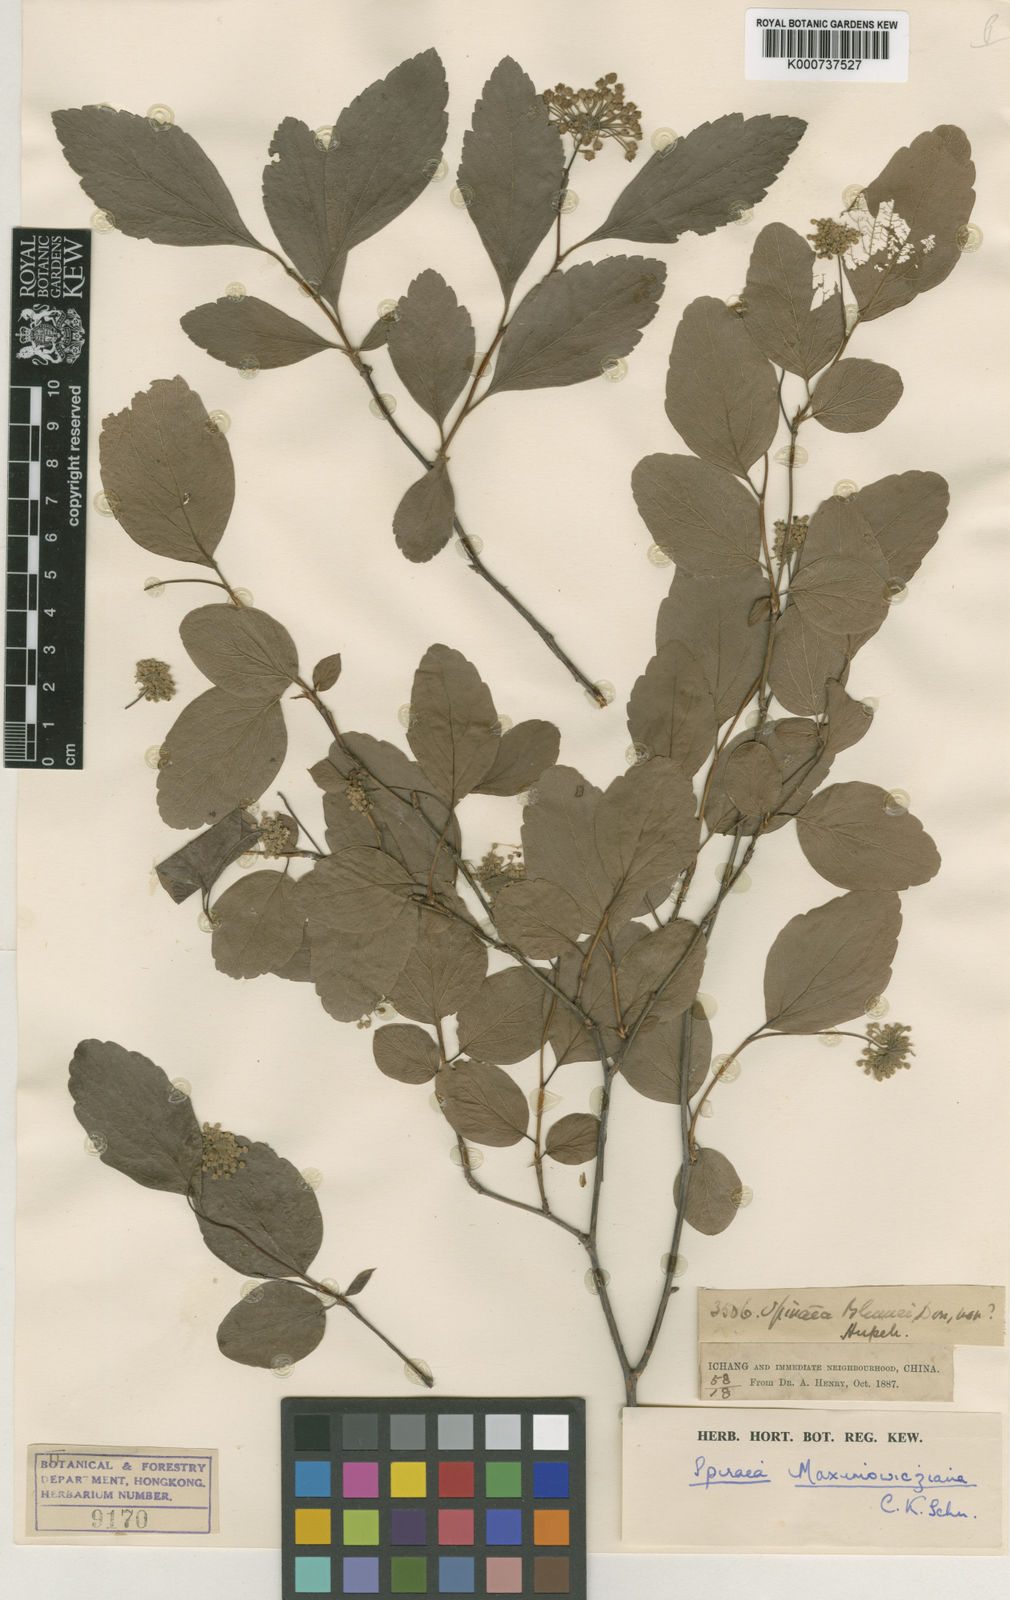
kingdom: Plantae
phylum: Tracheophyta
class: Magnoliopsida
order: Rosales
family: Rosaceae
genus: Spiraea
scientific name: Spiraea hirsuta
